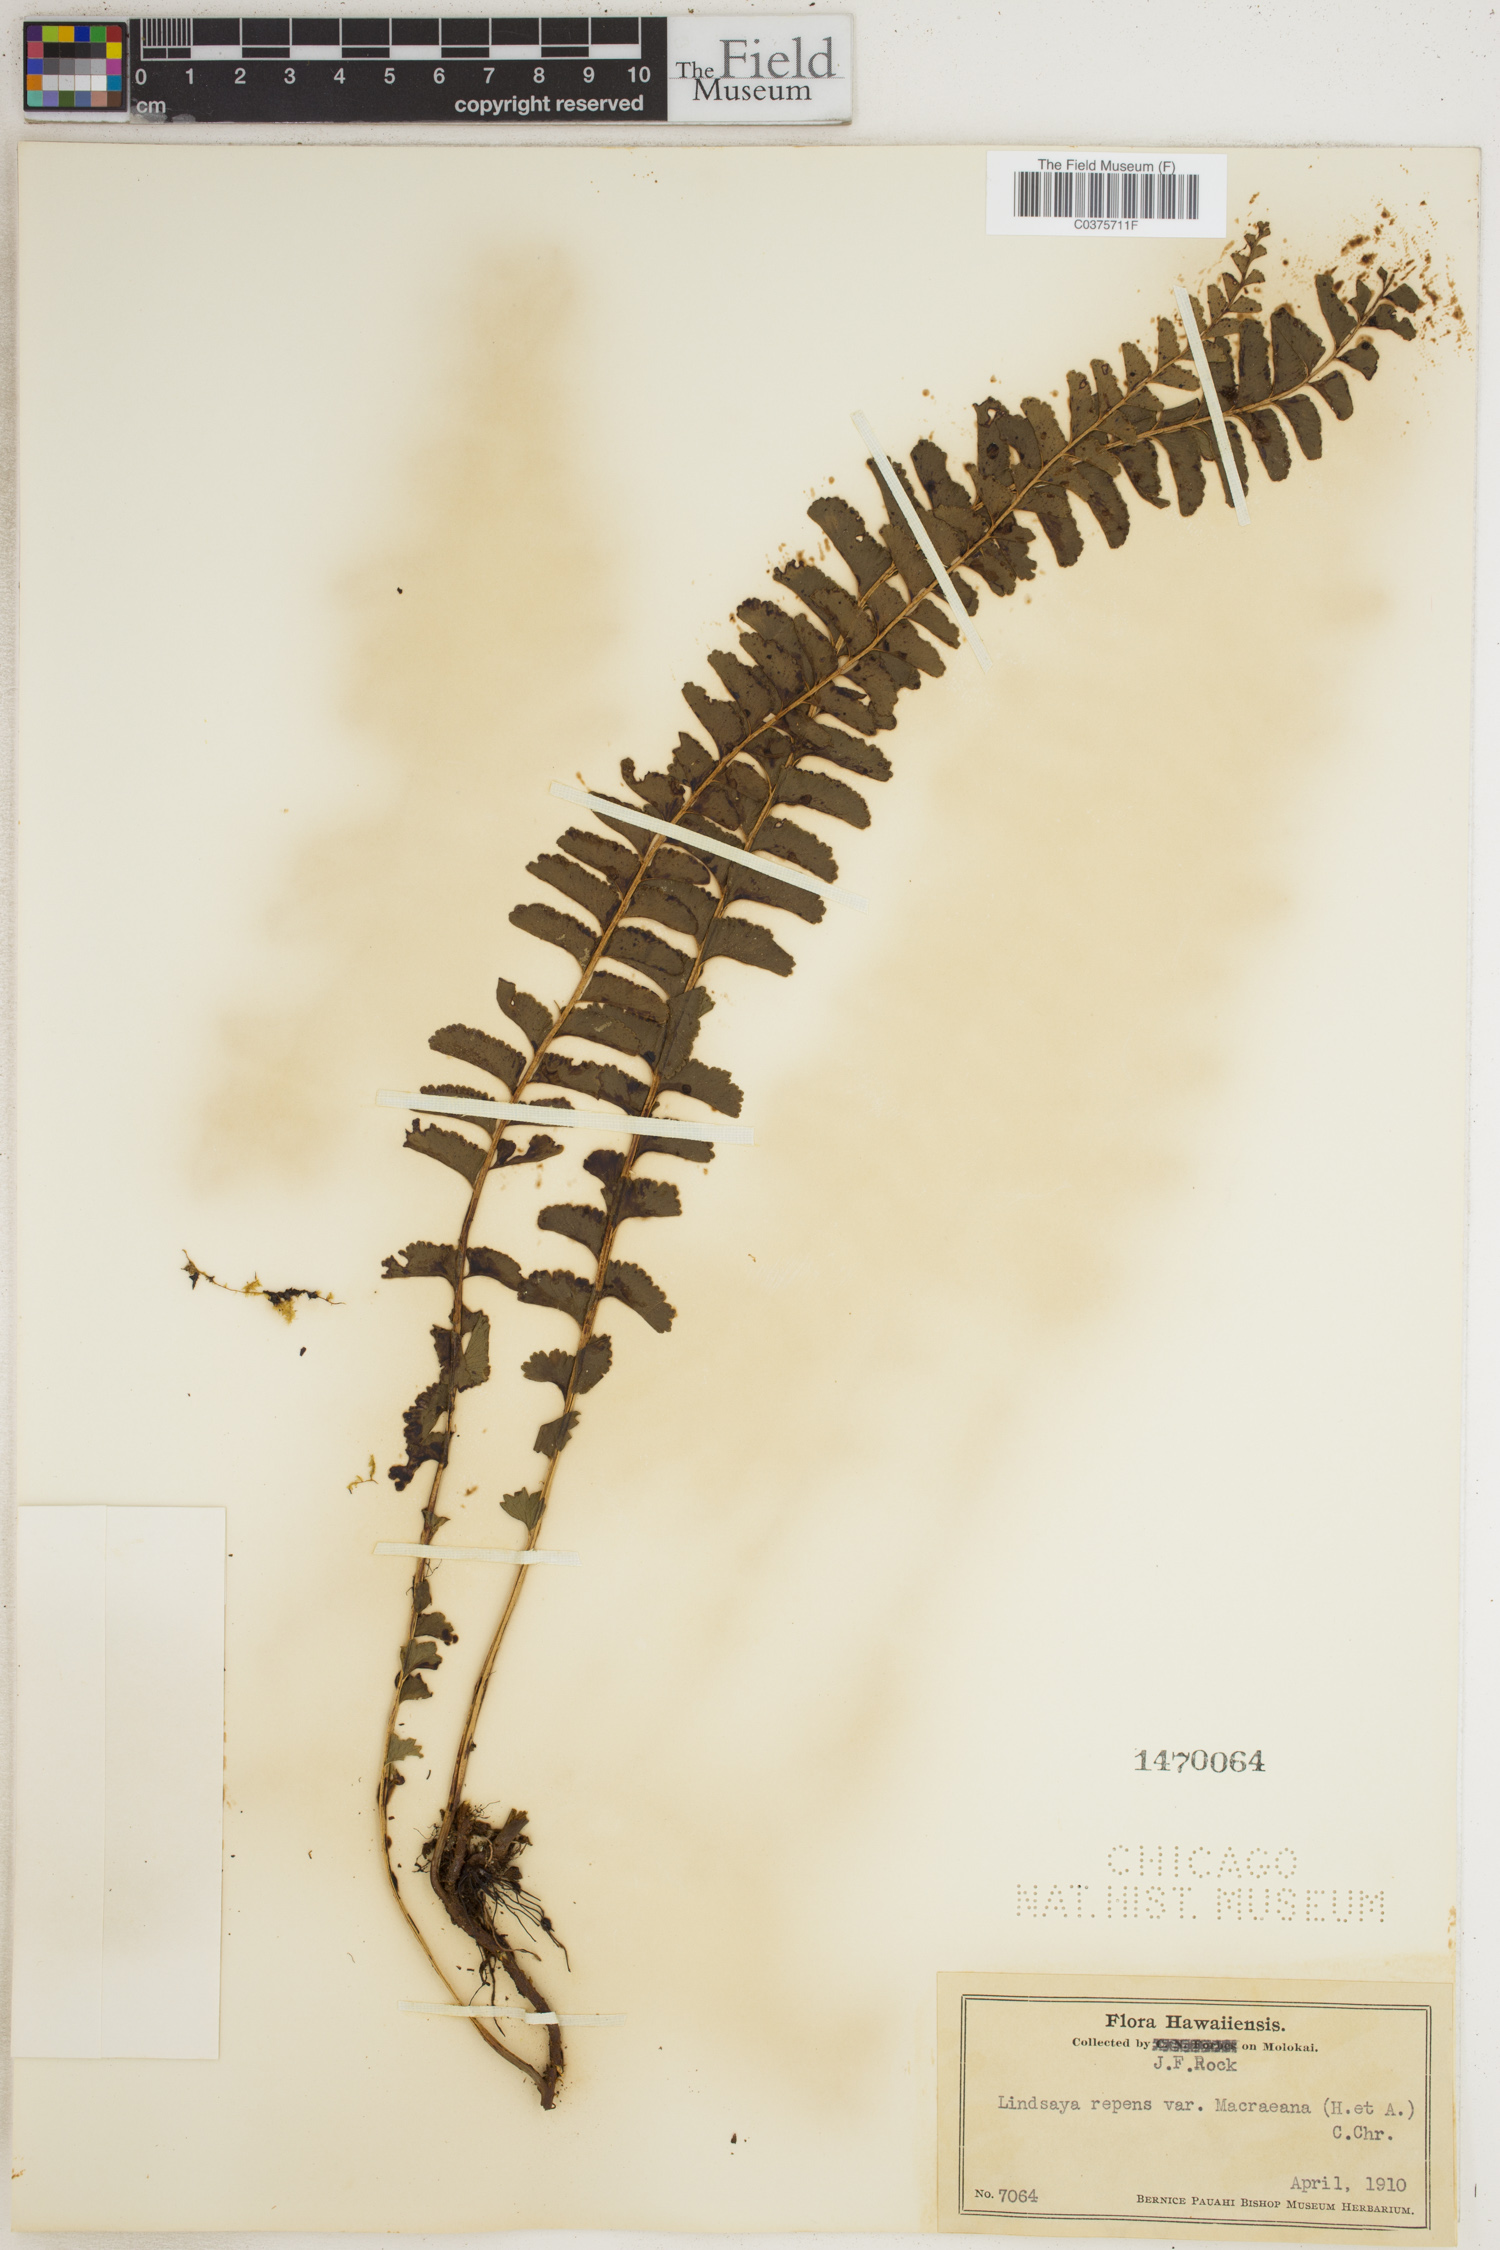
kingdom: Plantae
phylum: Tracheophyta
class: Polypodiopsida
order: Polypodiales
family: Lindsaeaceae
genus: Lindsaea
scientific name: Lindsaea macraeana
